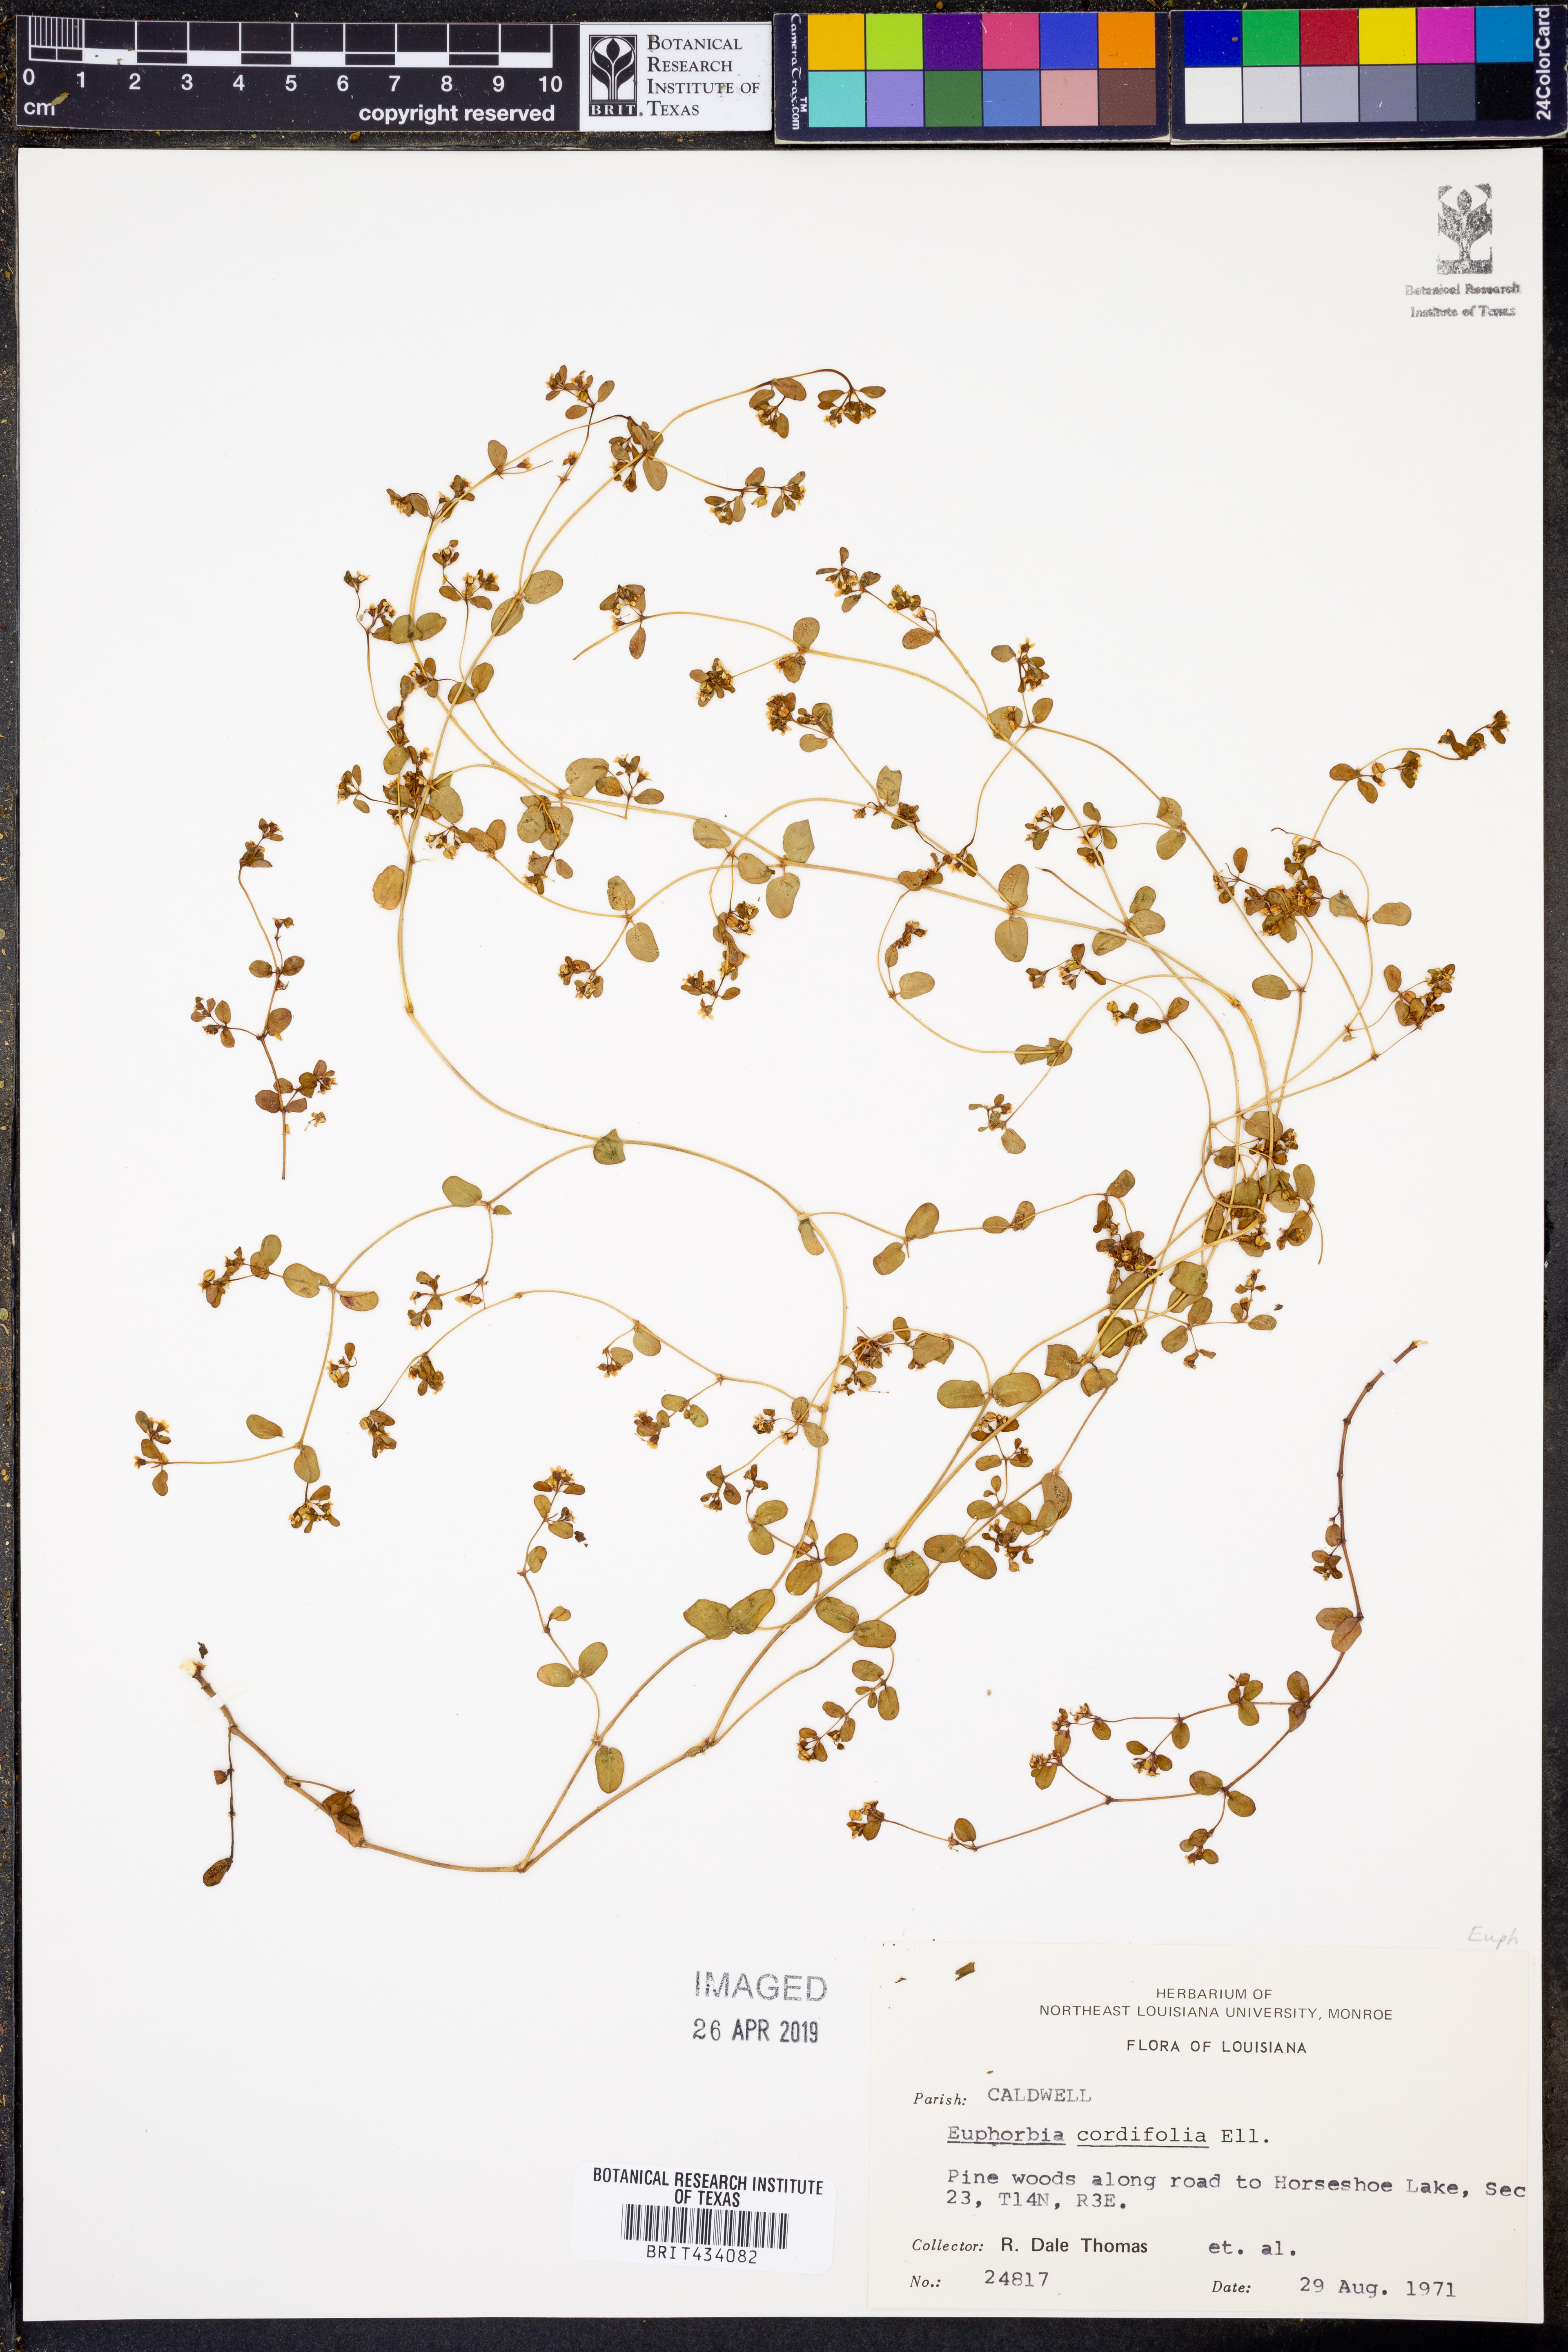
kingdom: Plantae
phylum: Tracheophyta
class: Magnoliopsida
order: Malpighiales
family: Euphorbiaceae
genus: Euphorbia
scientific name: Euphorbia cordifolia
